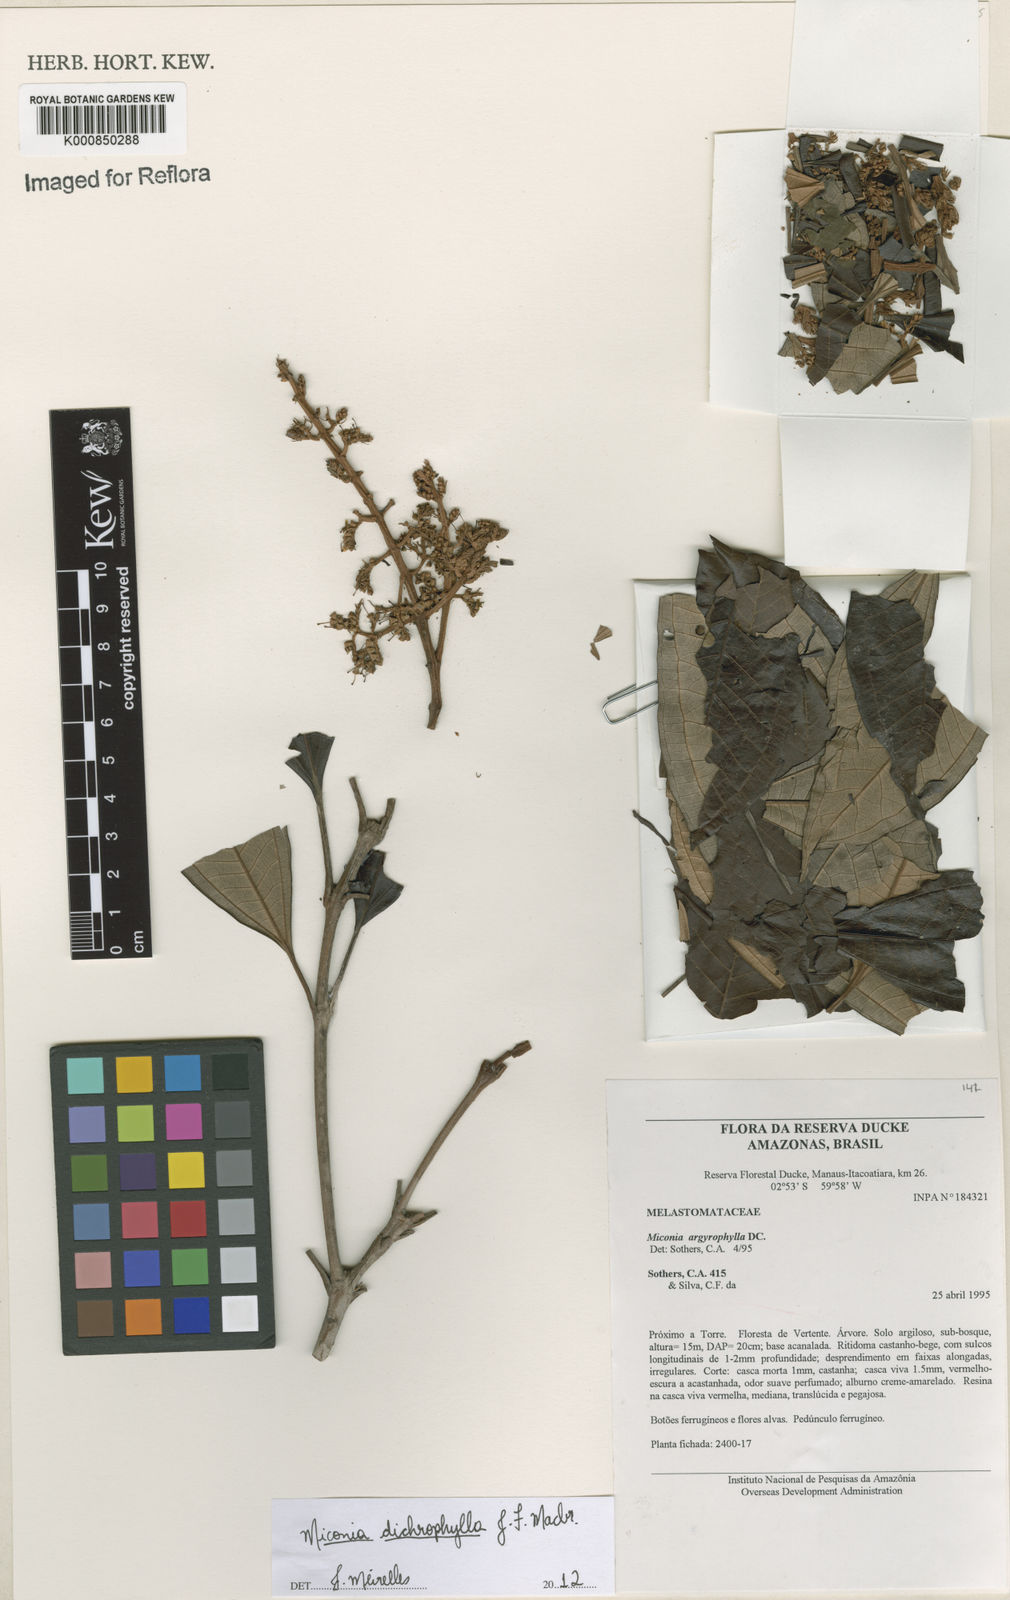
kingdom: Plantae
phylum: Tracheophyta
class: Magnoliopsida
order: Myrtales
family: Melastomataceae
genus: Miconia
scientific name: Miconia
